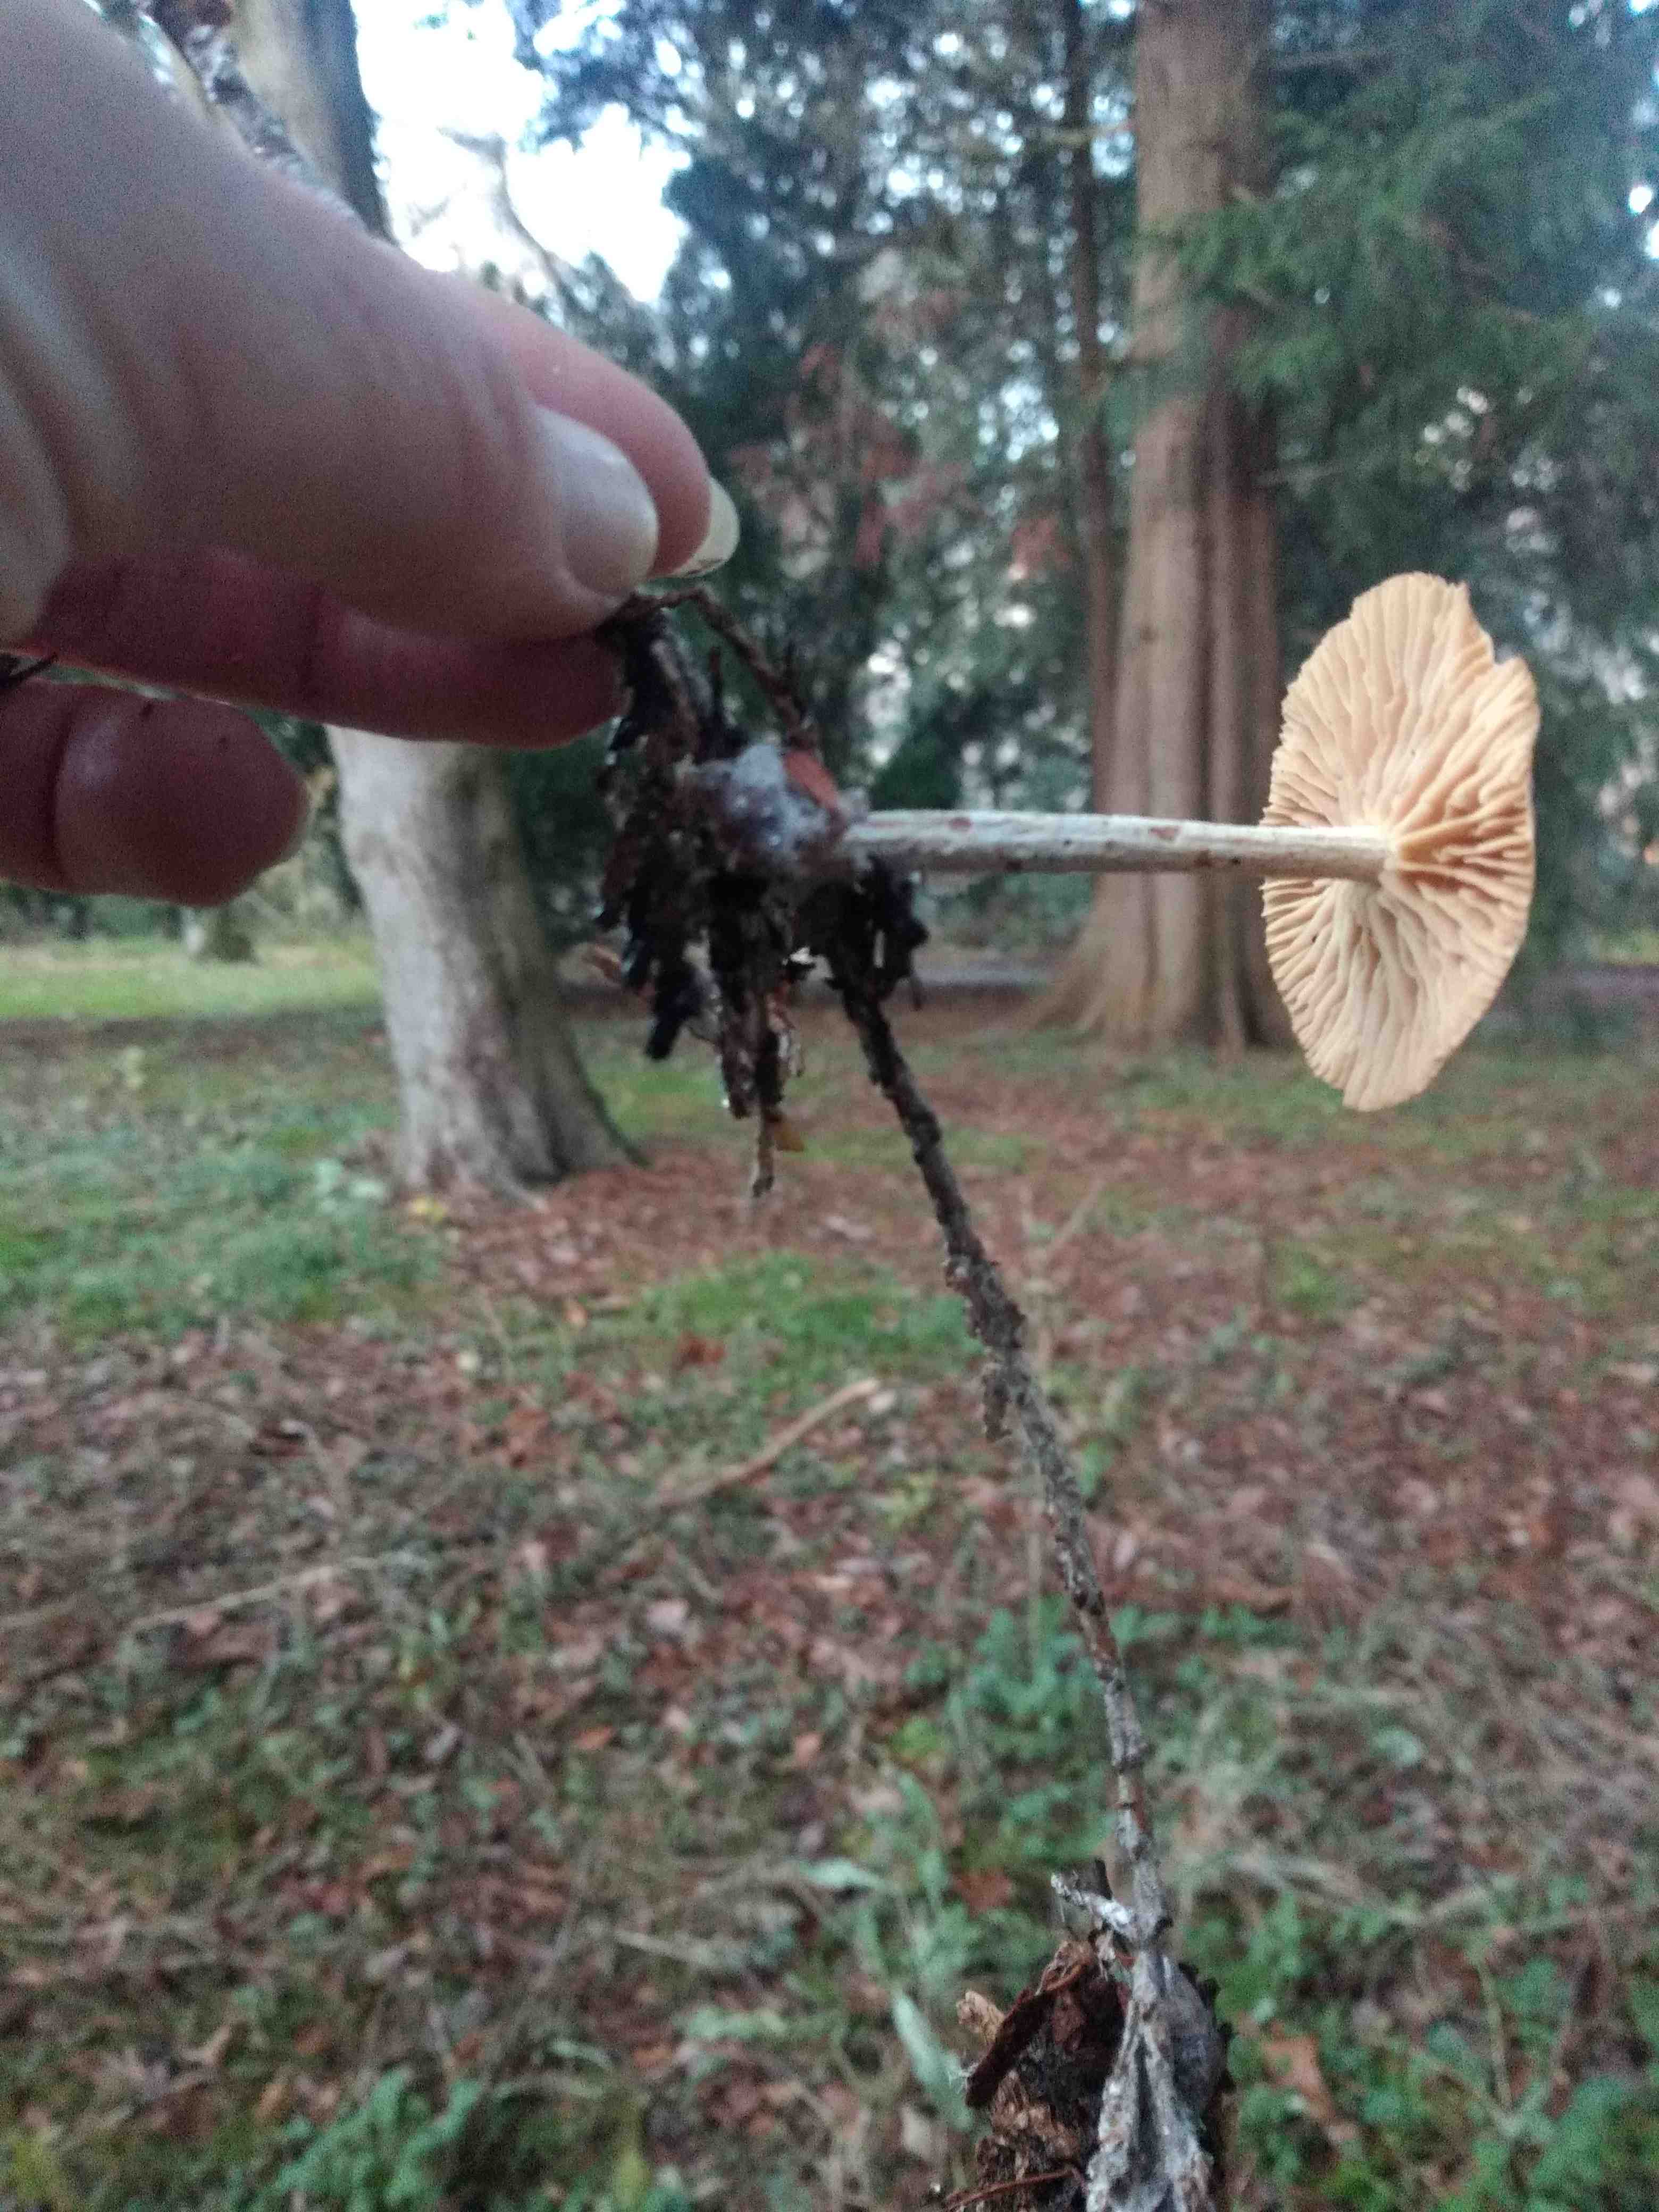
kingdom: Fungi
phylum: Basidiomycota
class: Agaricomycetes
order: Agaricales
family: Omphalotaceae
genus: Collybiopsis
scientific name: Collybiopsis peronata
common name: bestøvlet fladhat
